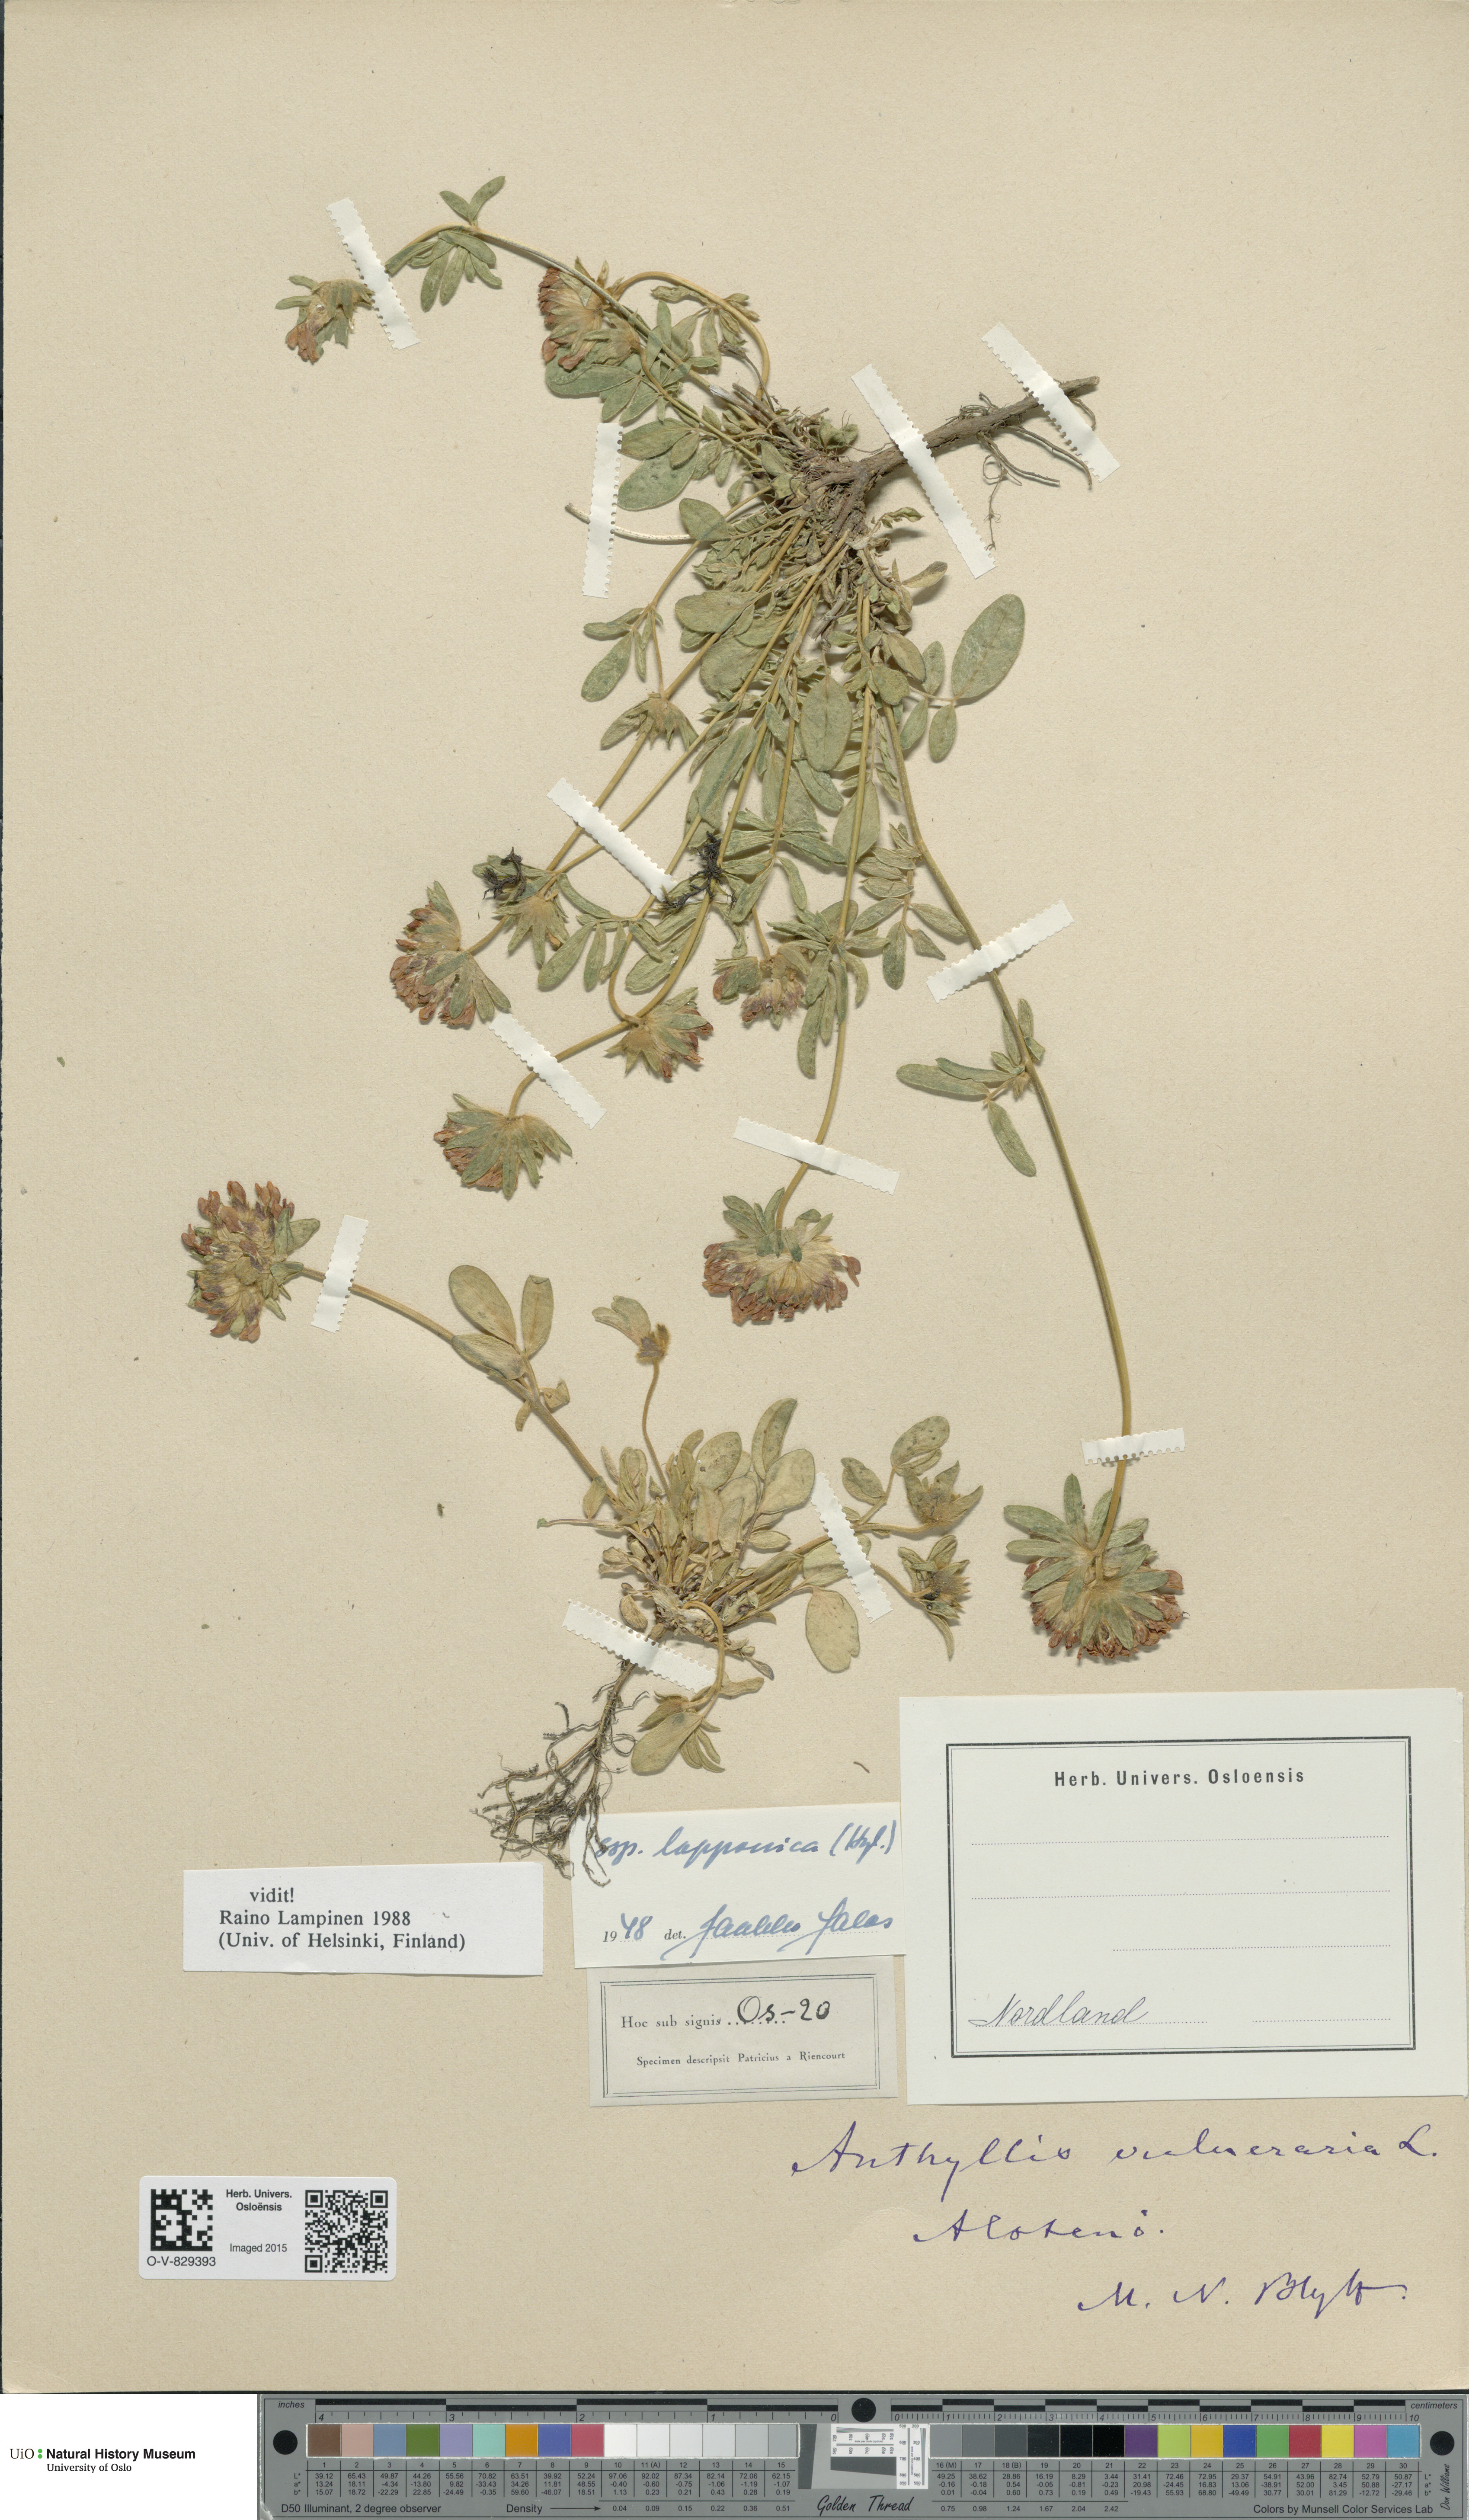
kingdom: Plantae
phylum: Tracheophyta
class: Magnoliopsida
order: Fabales
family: Fabaceae
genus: Anthyllis
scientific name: Anthyllis vulneraria
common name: Kidney vetch
